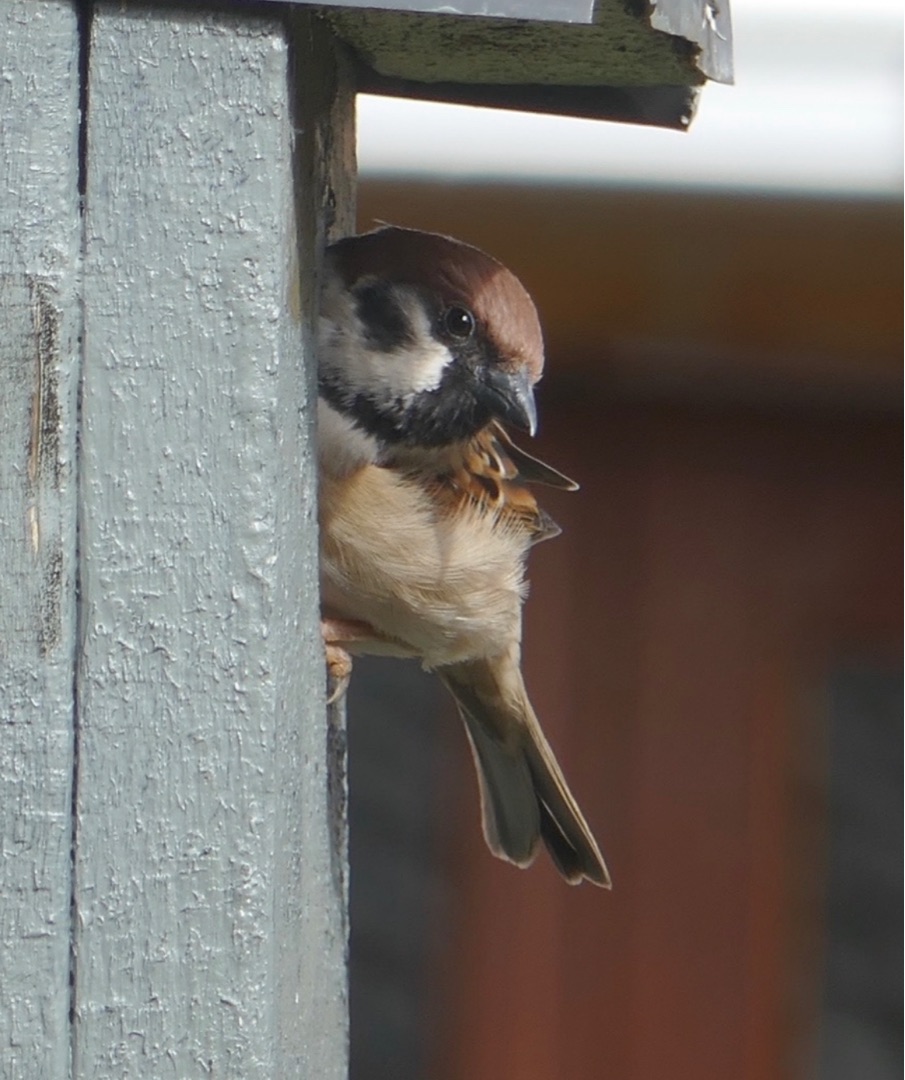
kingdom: Animalia
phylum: Chordata
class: Aves
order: Passeriformes
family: Passeridae
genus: Passer
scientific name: Passer montanus
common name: Skovspurv
